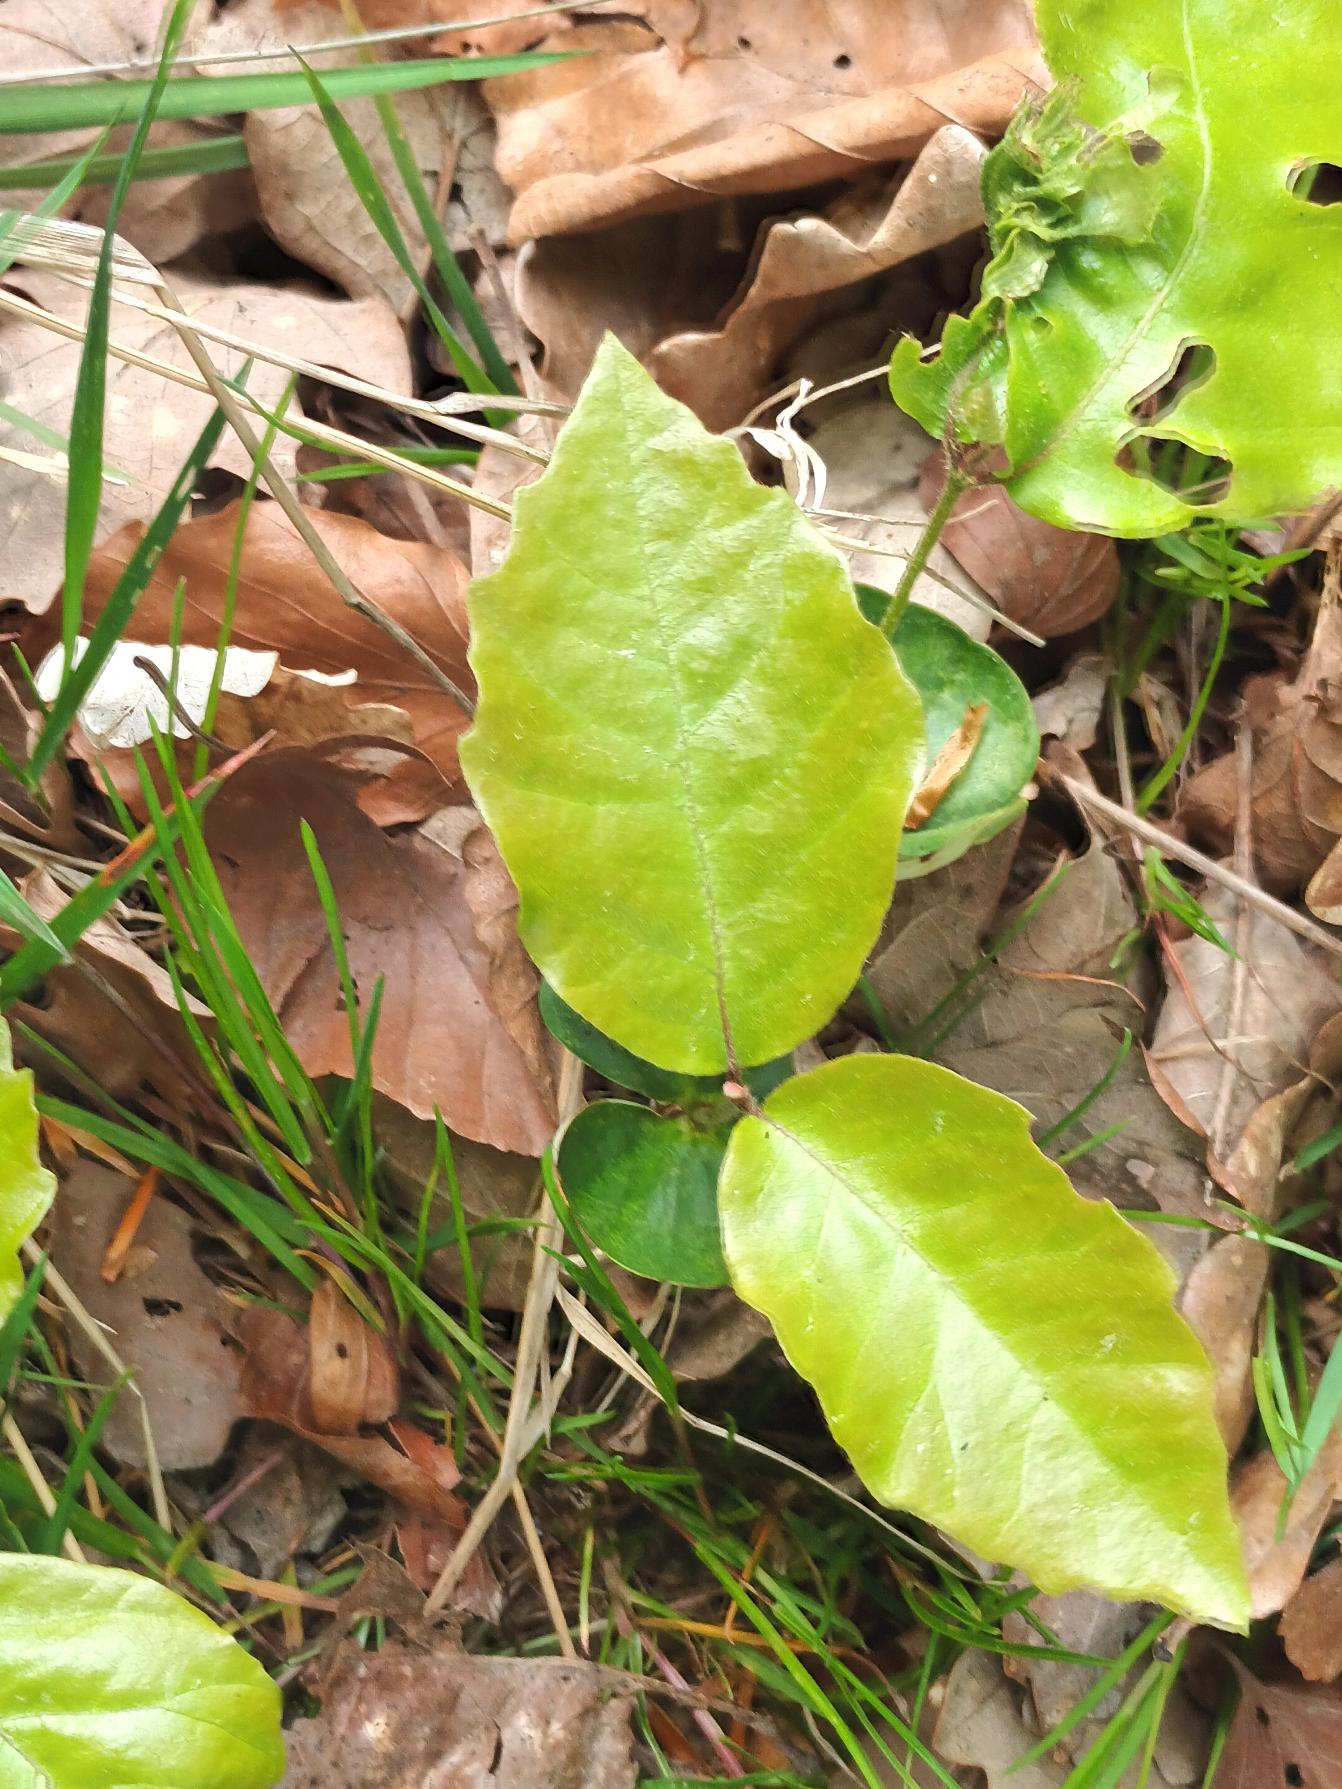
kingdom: Plantae
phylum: Tracheophyta
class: Magnoliopsida
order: Fagales
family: Fagaceae
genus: Fagus
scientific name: Fagus sylvatica
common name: Bøg
